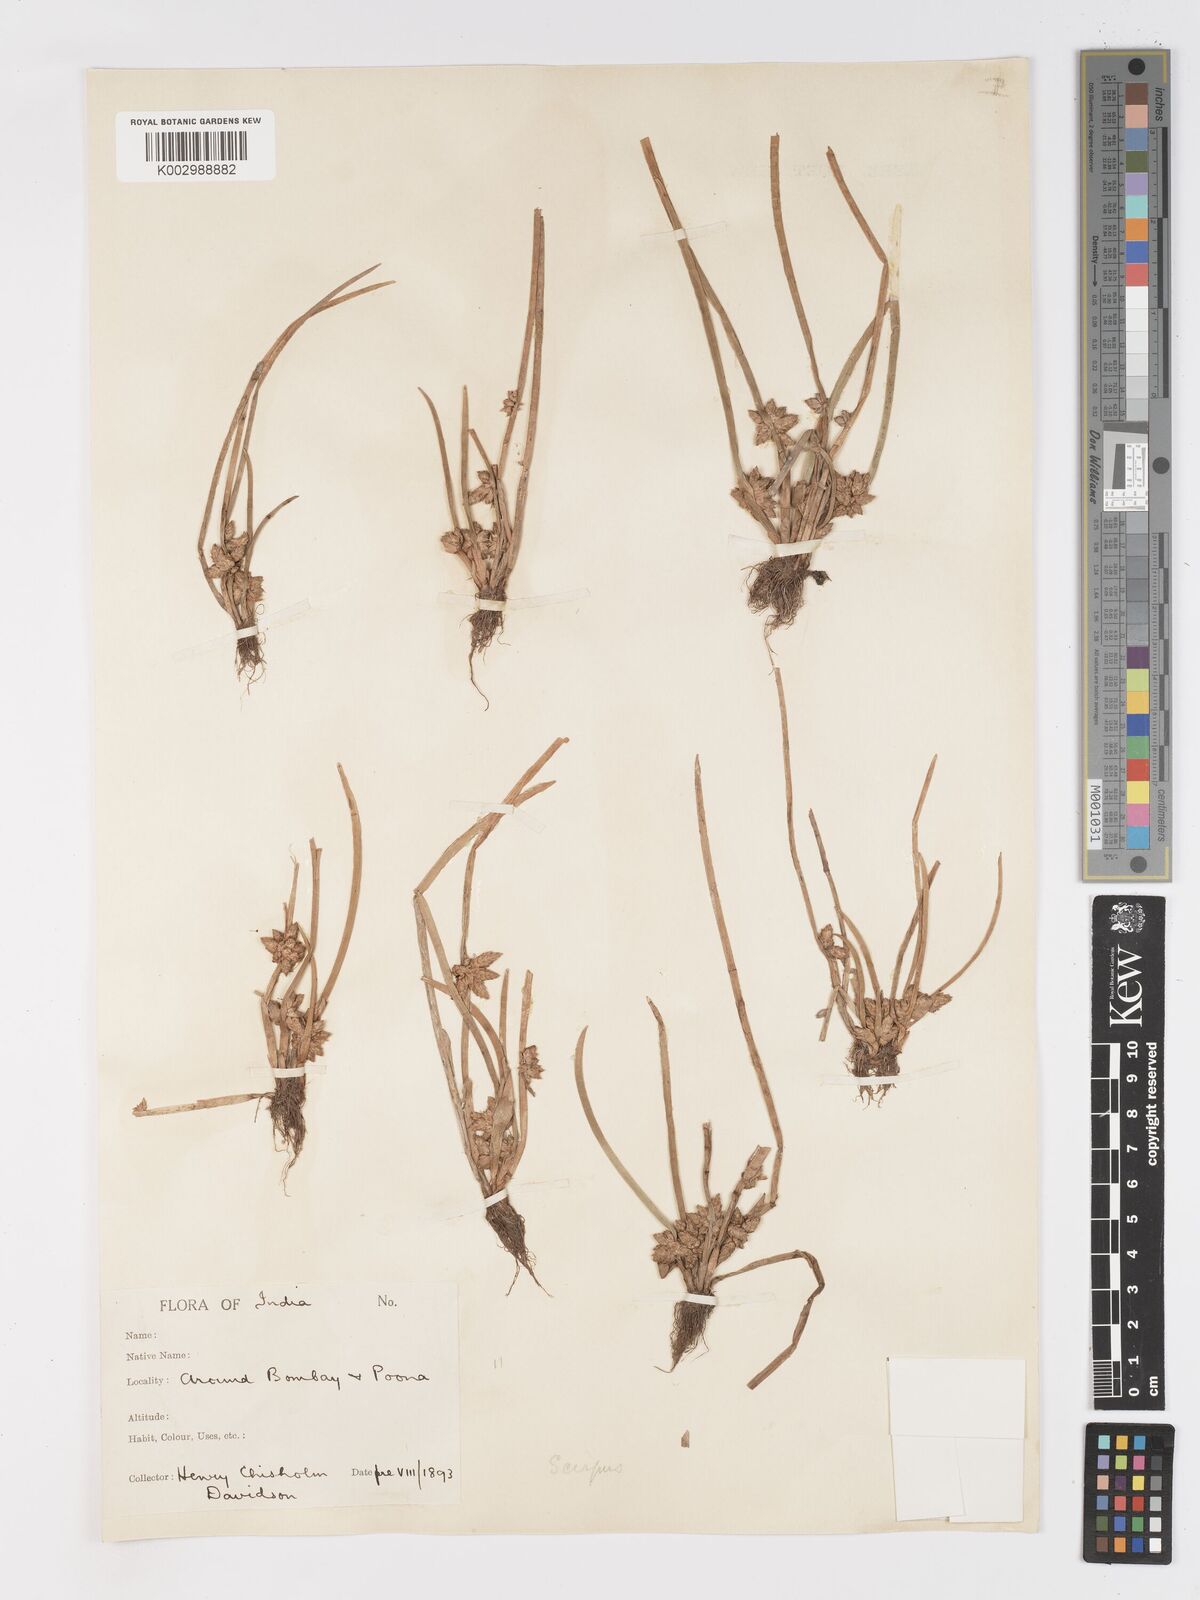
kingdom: Plantae
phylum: Tracheophyta
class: Liliopsida
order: Poales
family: Cyperaceae
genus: Schoenoplectiella
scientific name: Schoenoplectiella praelongata
